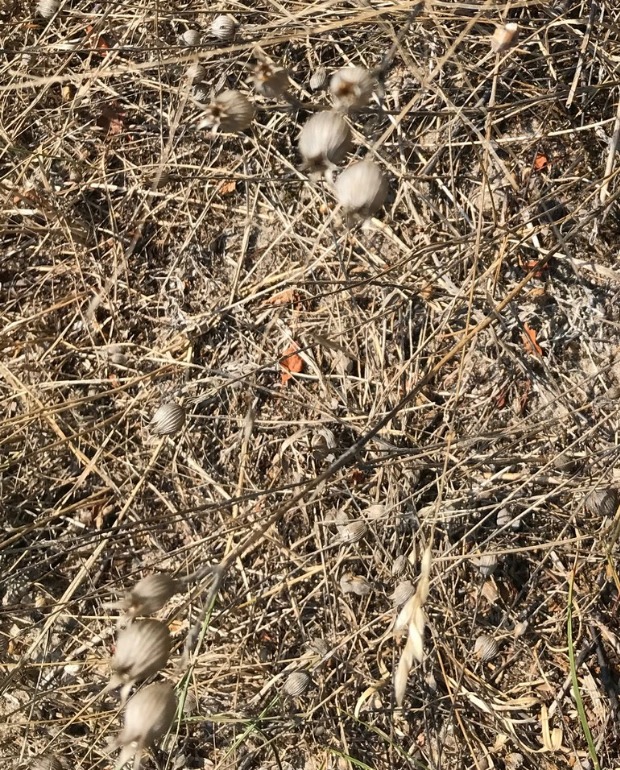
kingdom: Plantae
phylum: Tracheophyta
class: Magnoliopsida
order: Caryophyllales
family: Caryophyllaceae
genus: Silene
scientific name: Silene conica
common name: Kegle-limurt
